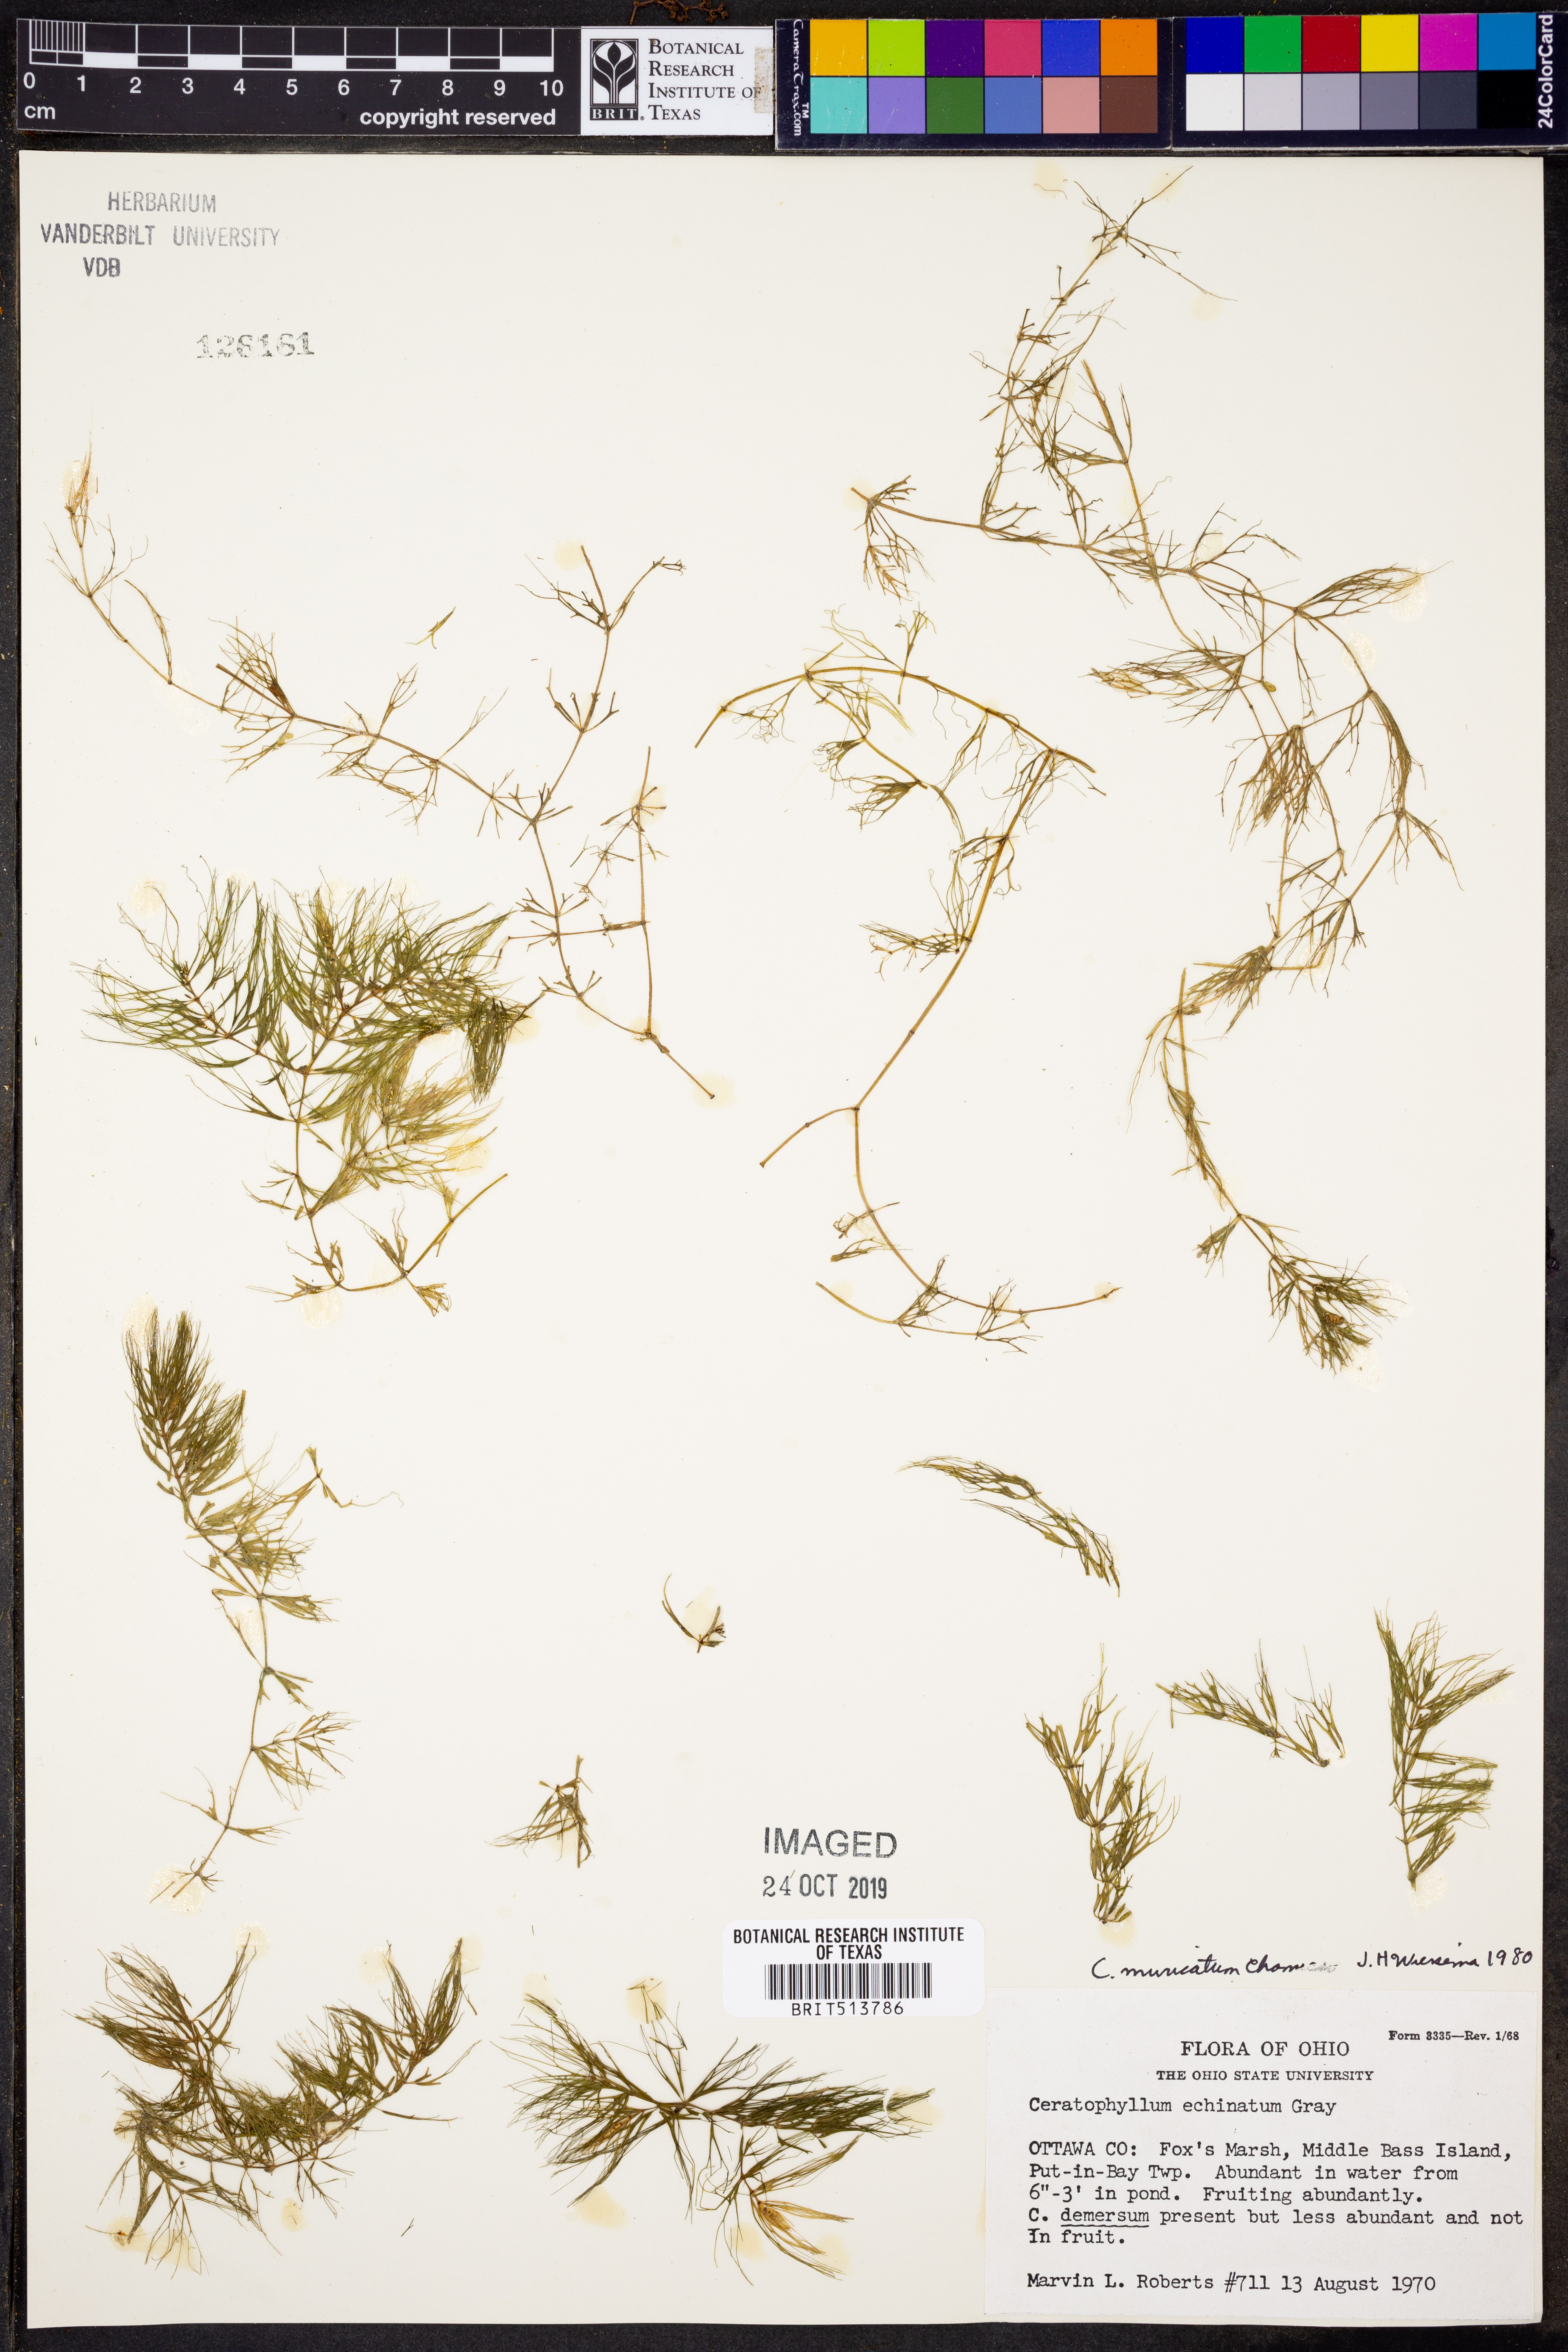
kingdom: Plantae
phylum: Tracheophyta
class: Magnoliopsida
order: Ceratophyllales
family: Ceratophyllaceae
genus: Ceratophyllum
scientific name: Ceratophyllum muricatum
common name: Prickly hornwort
